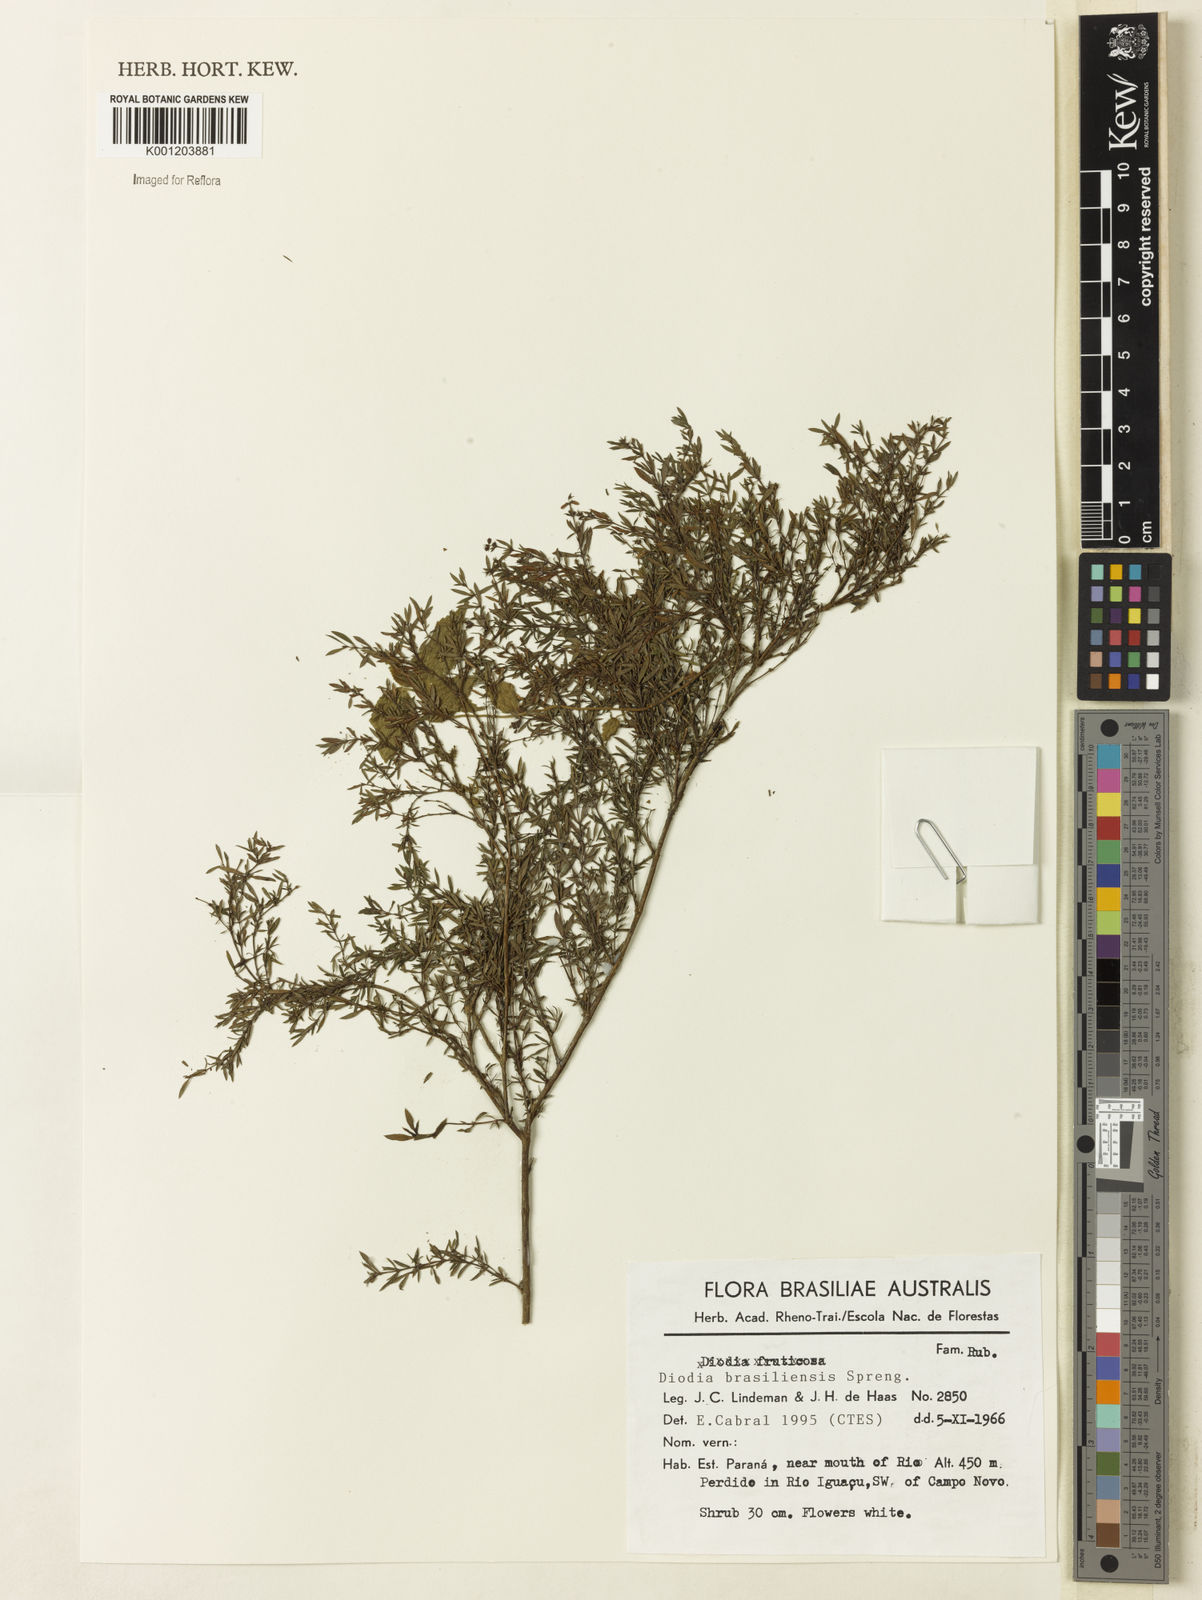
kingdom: Plantae
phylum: Tracheophyta
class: Magnoliopsida
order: Gentianales
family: Rubiaceae
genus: Galianthe
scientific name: Galianthe brasiliensis
